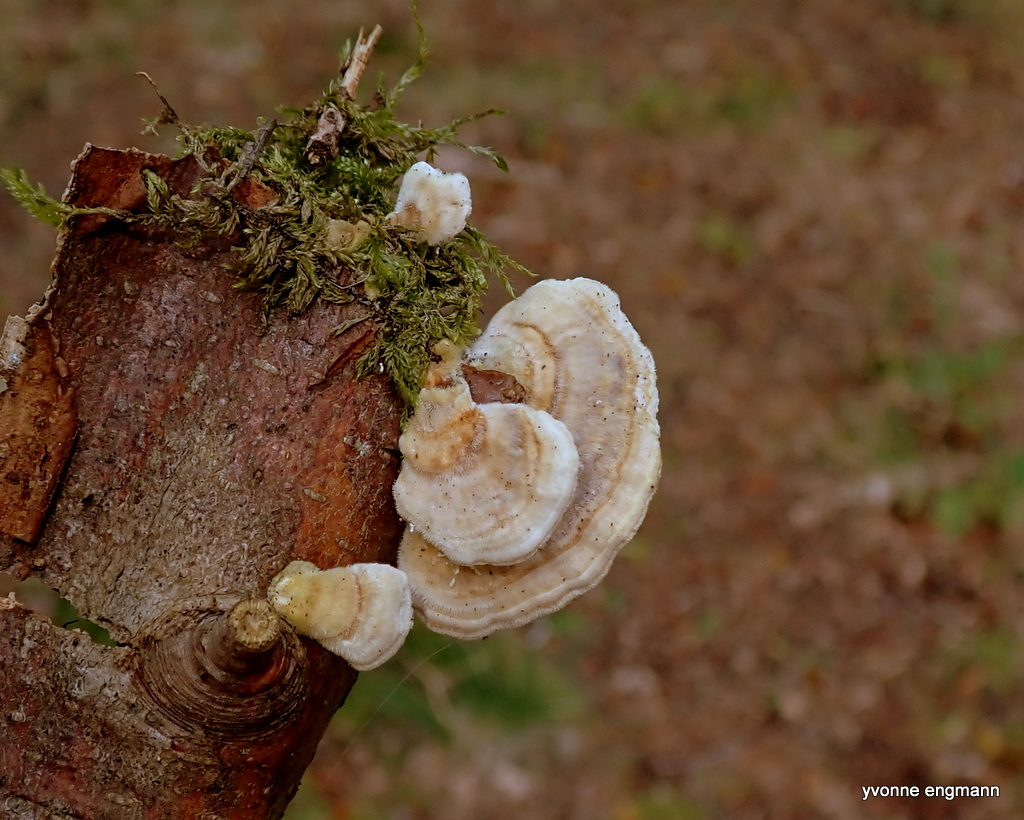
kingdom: Fungi
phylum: Basidiomycota
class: Agaricomycetes
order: Polyporales
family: Polyporaceae
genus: Trametes
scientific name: Trametes versicolor
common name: broget læderporesvamp
